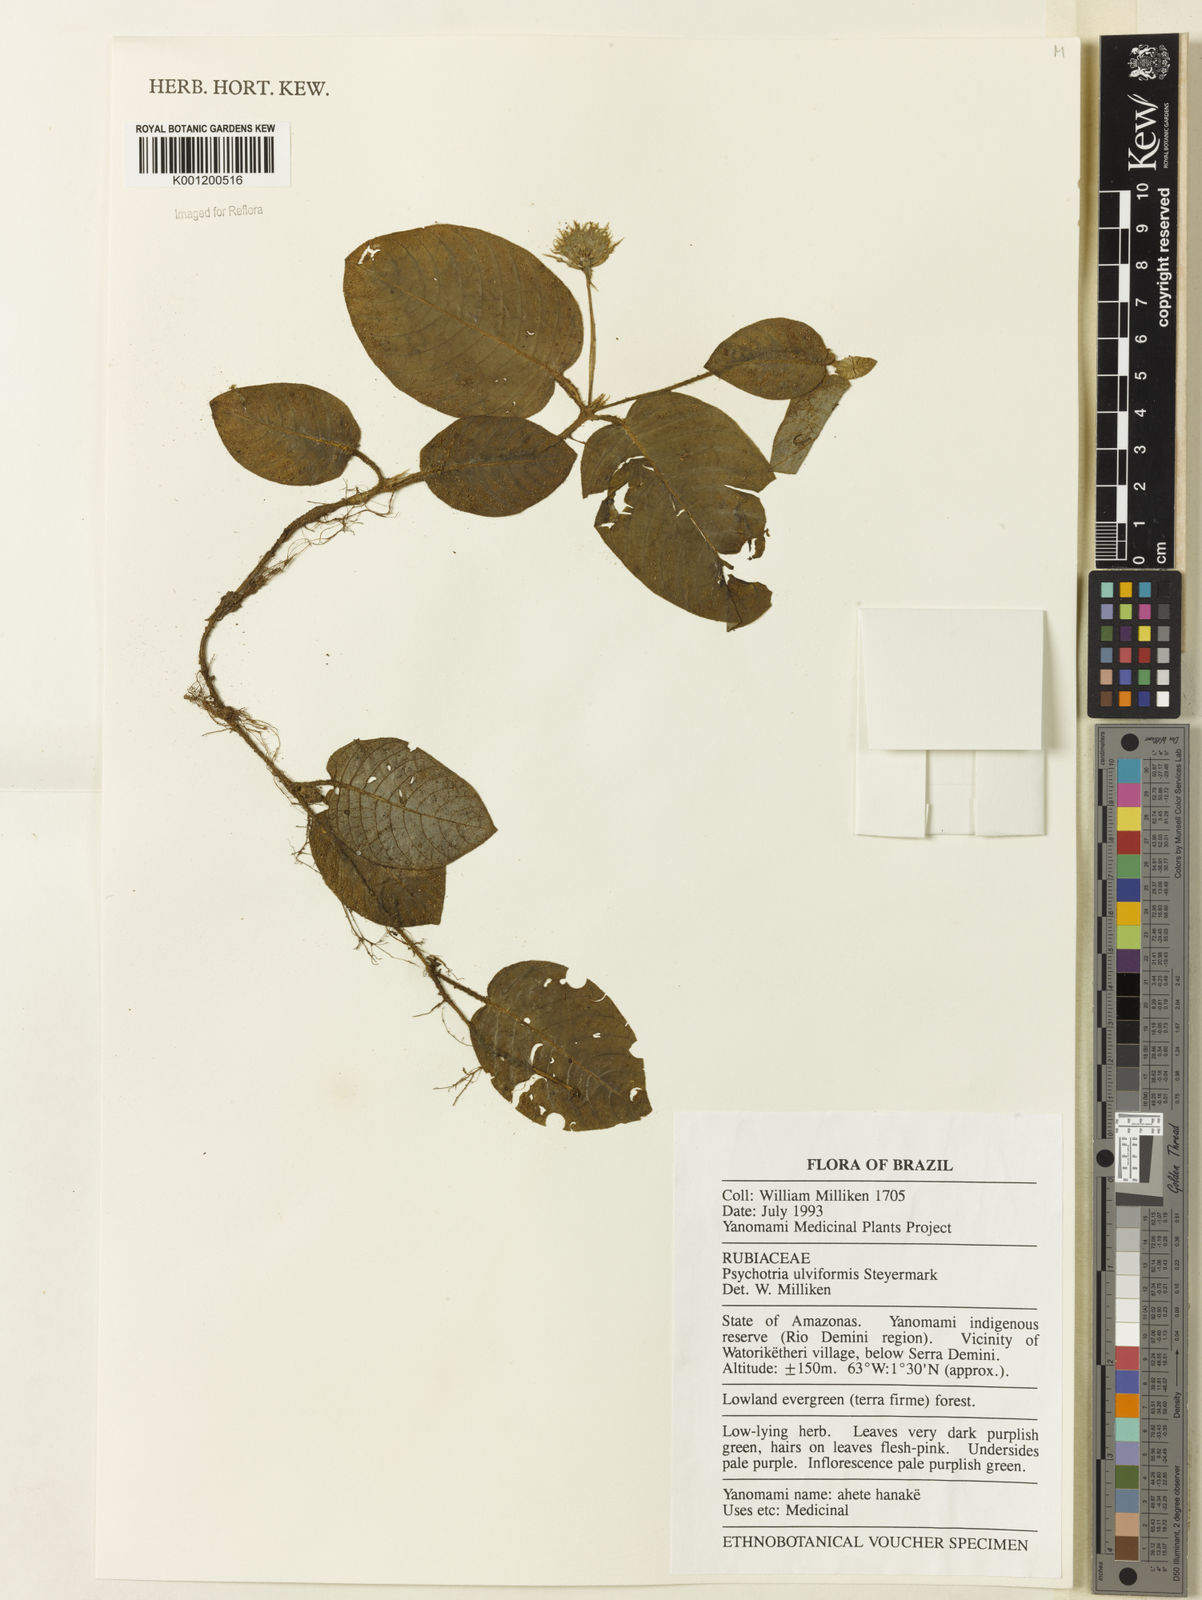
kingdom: Plantae
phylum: Tracheophyta
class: Magnoliopsida
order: Gentianales
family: Rubiaceae
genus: Palicourea
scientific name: Palicourea alba
